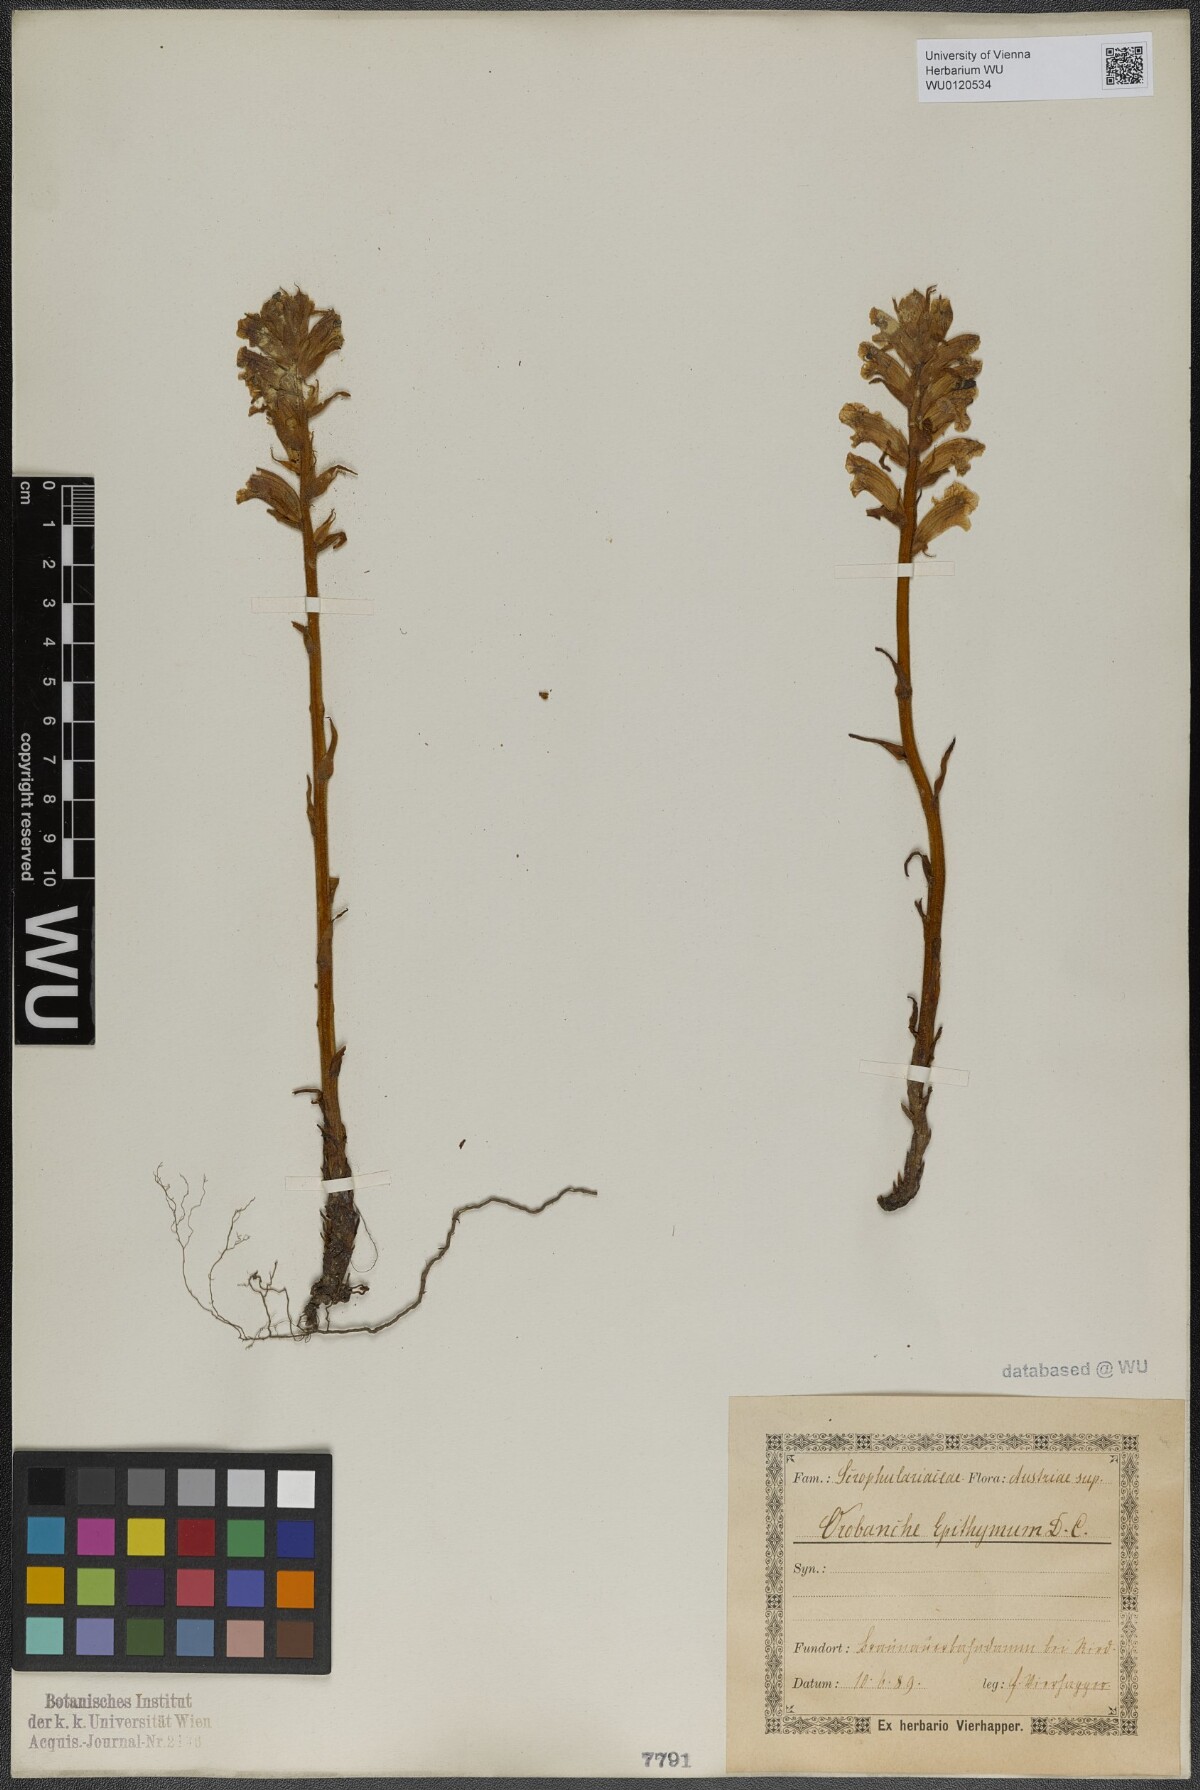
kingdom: Plantae
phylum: Tracheophyta
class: Magnoliopsida
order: Lamiales
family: Orobanchaceae
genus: Orobanche
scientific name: Orobanche alba
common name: Thyme broomrape
